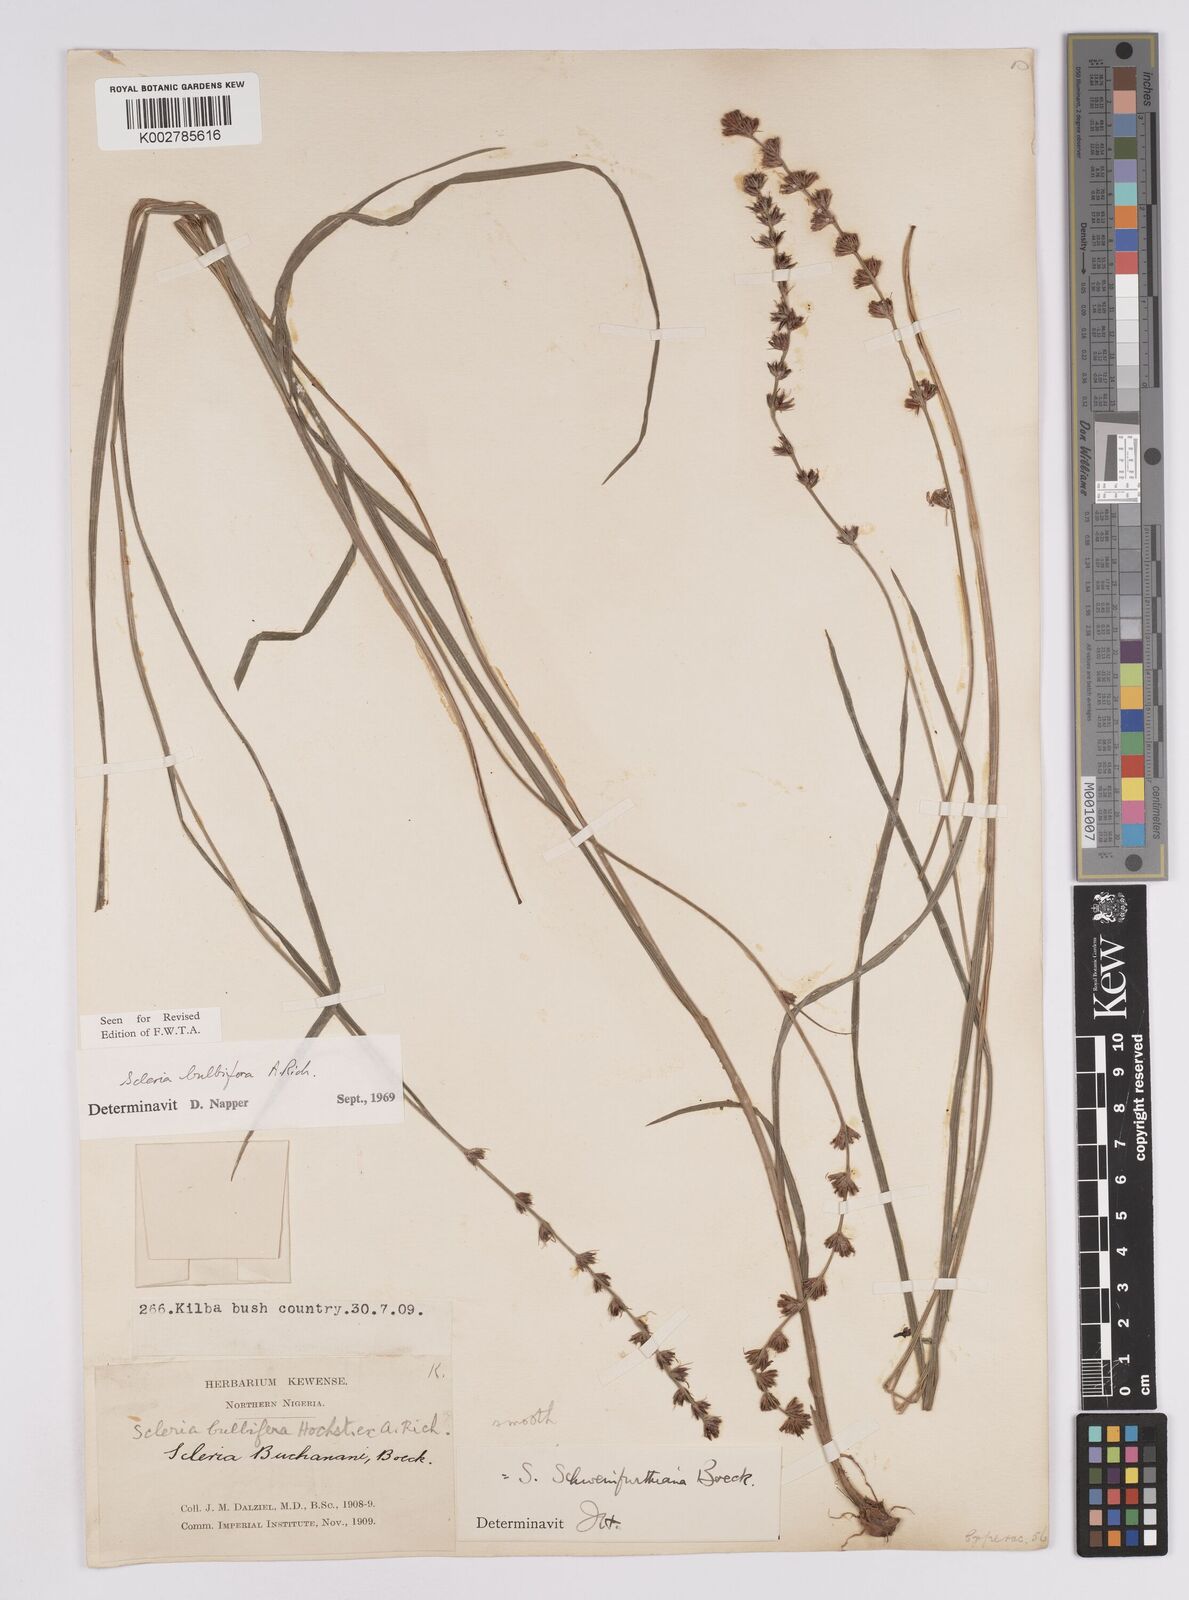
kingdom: Plantae
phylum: Tracheophyta
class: Liliopsida
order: Poales
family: Cyperaceae
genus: Scleria
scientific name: Scleria bulbifera
